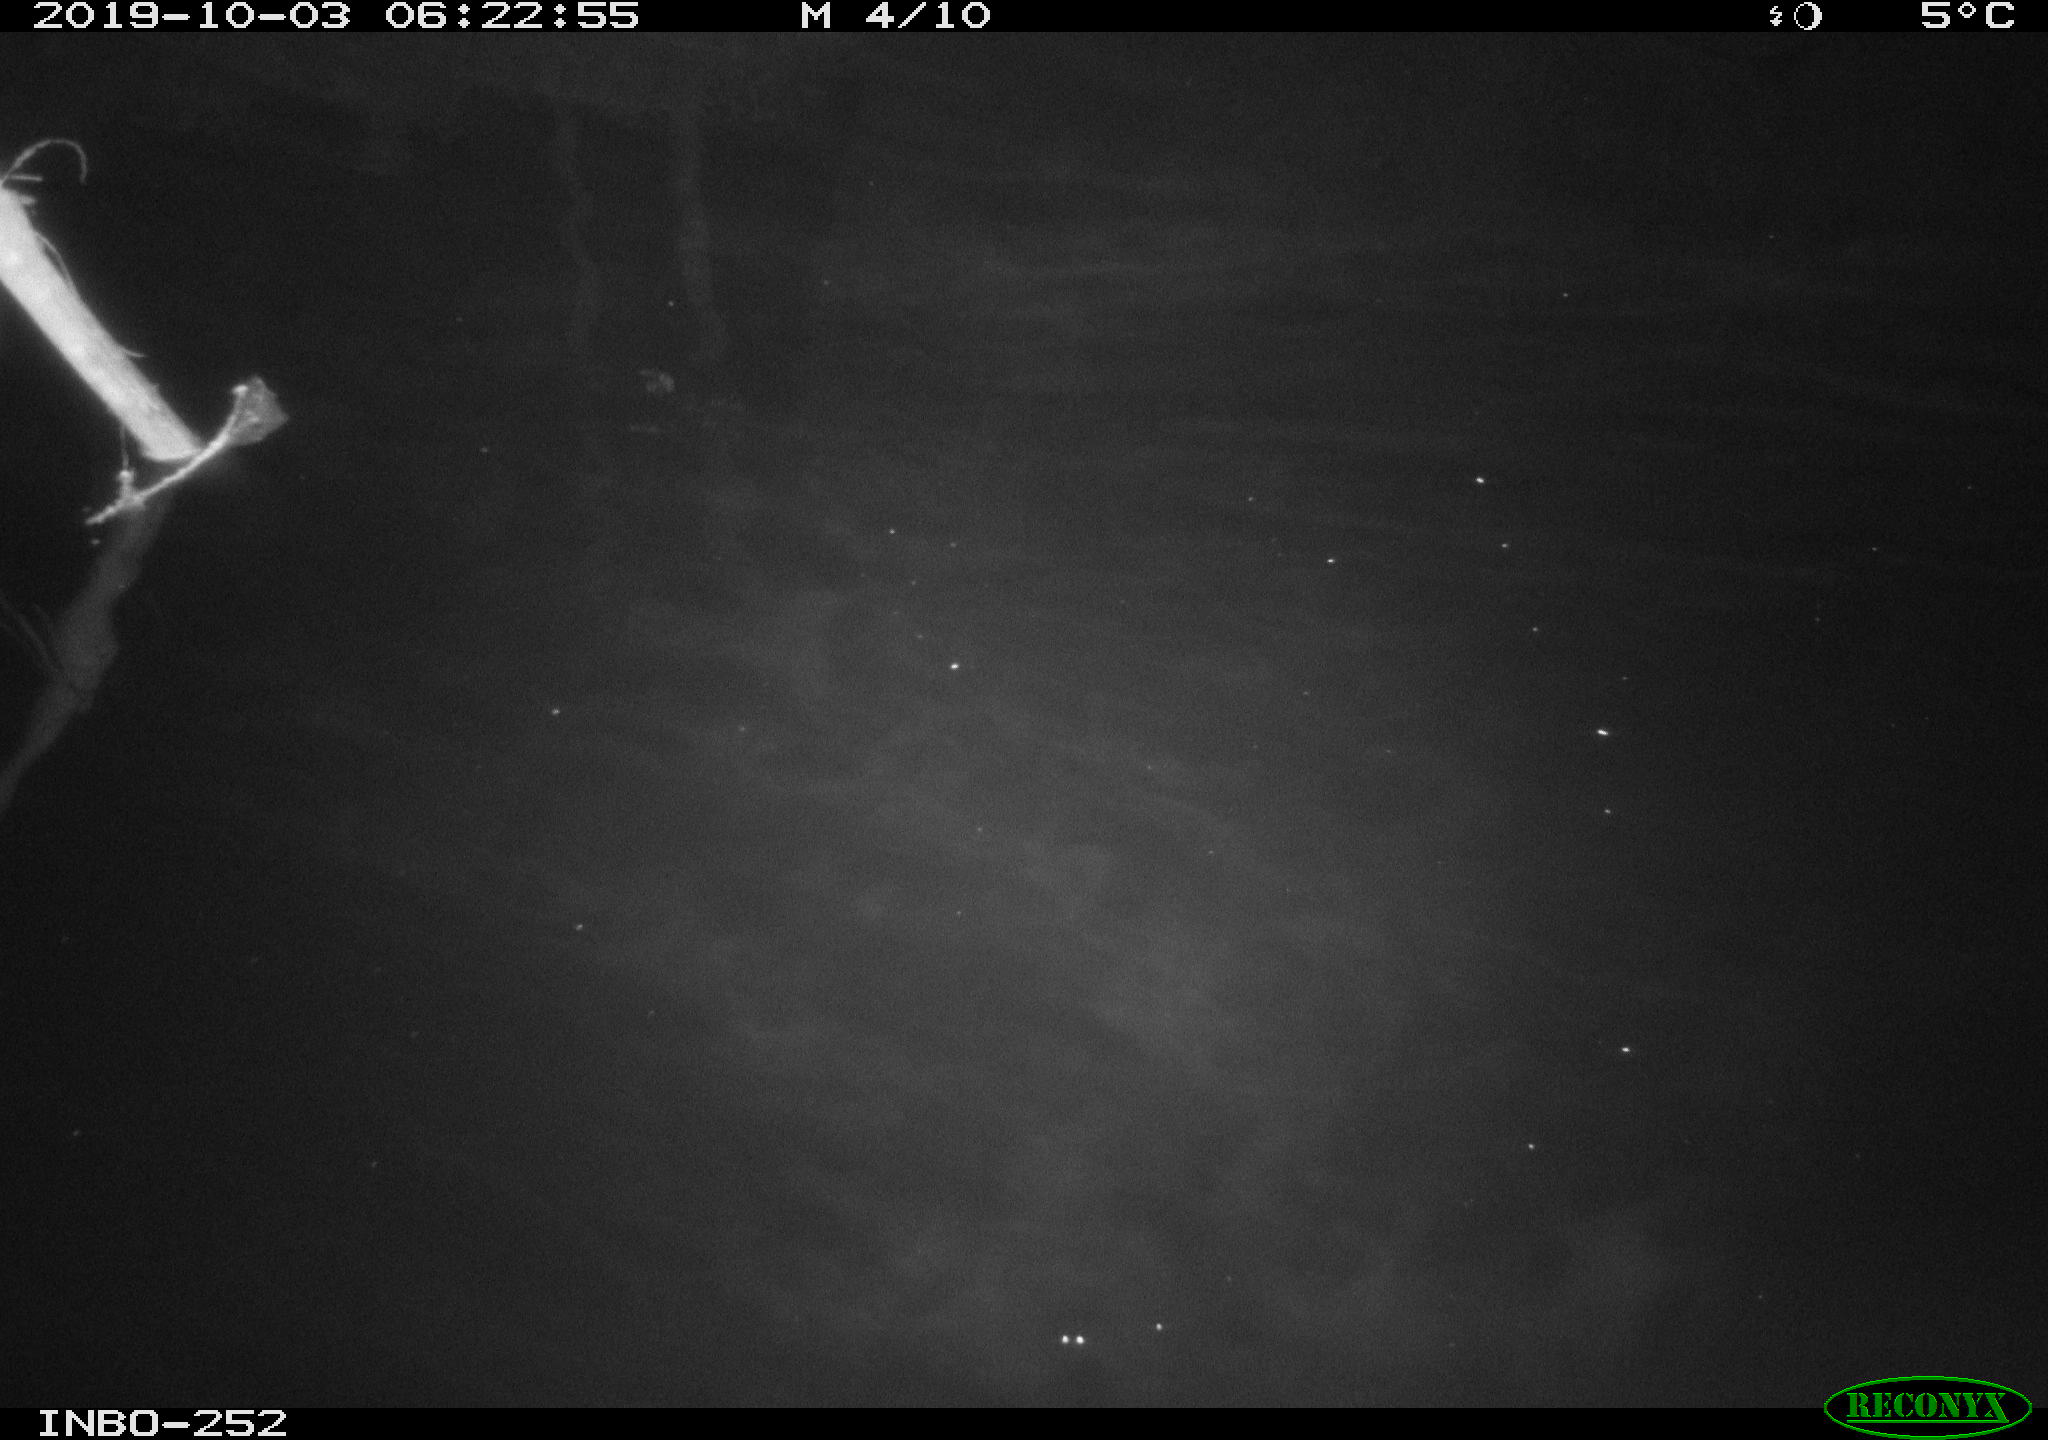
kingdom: Animalia
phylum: Chordata
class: Aves
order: Anseriformes
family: Anatidae
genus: Anas
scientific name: Anas platyrhynchos
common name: Mallard
